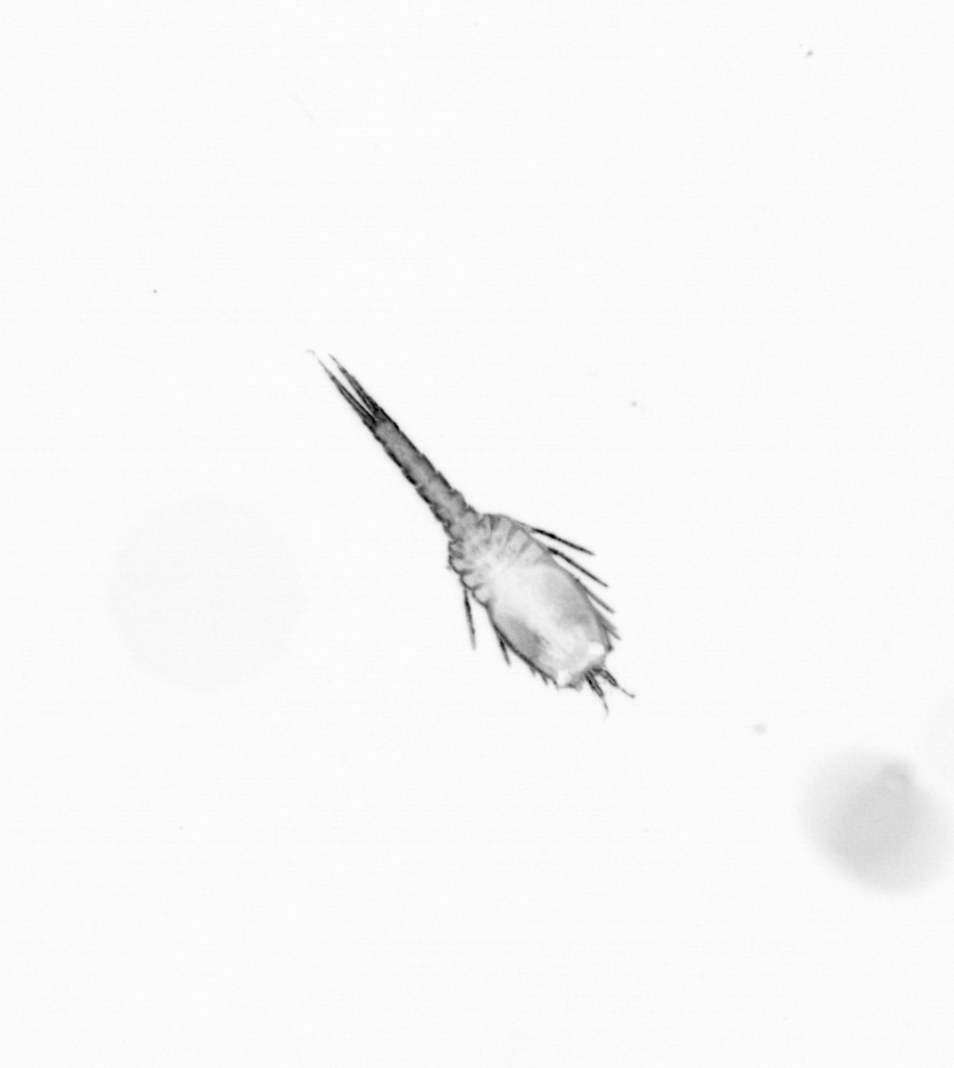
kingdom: Animalia
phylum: Arthropoda
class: Copepoda
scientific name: Copepoda
